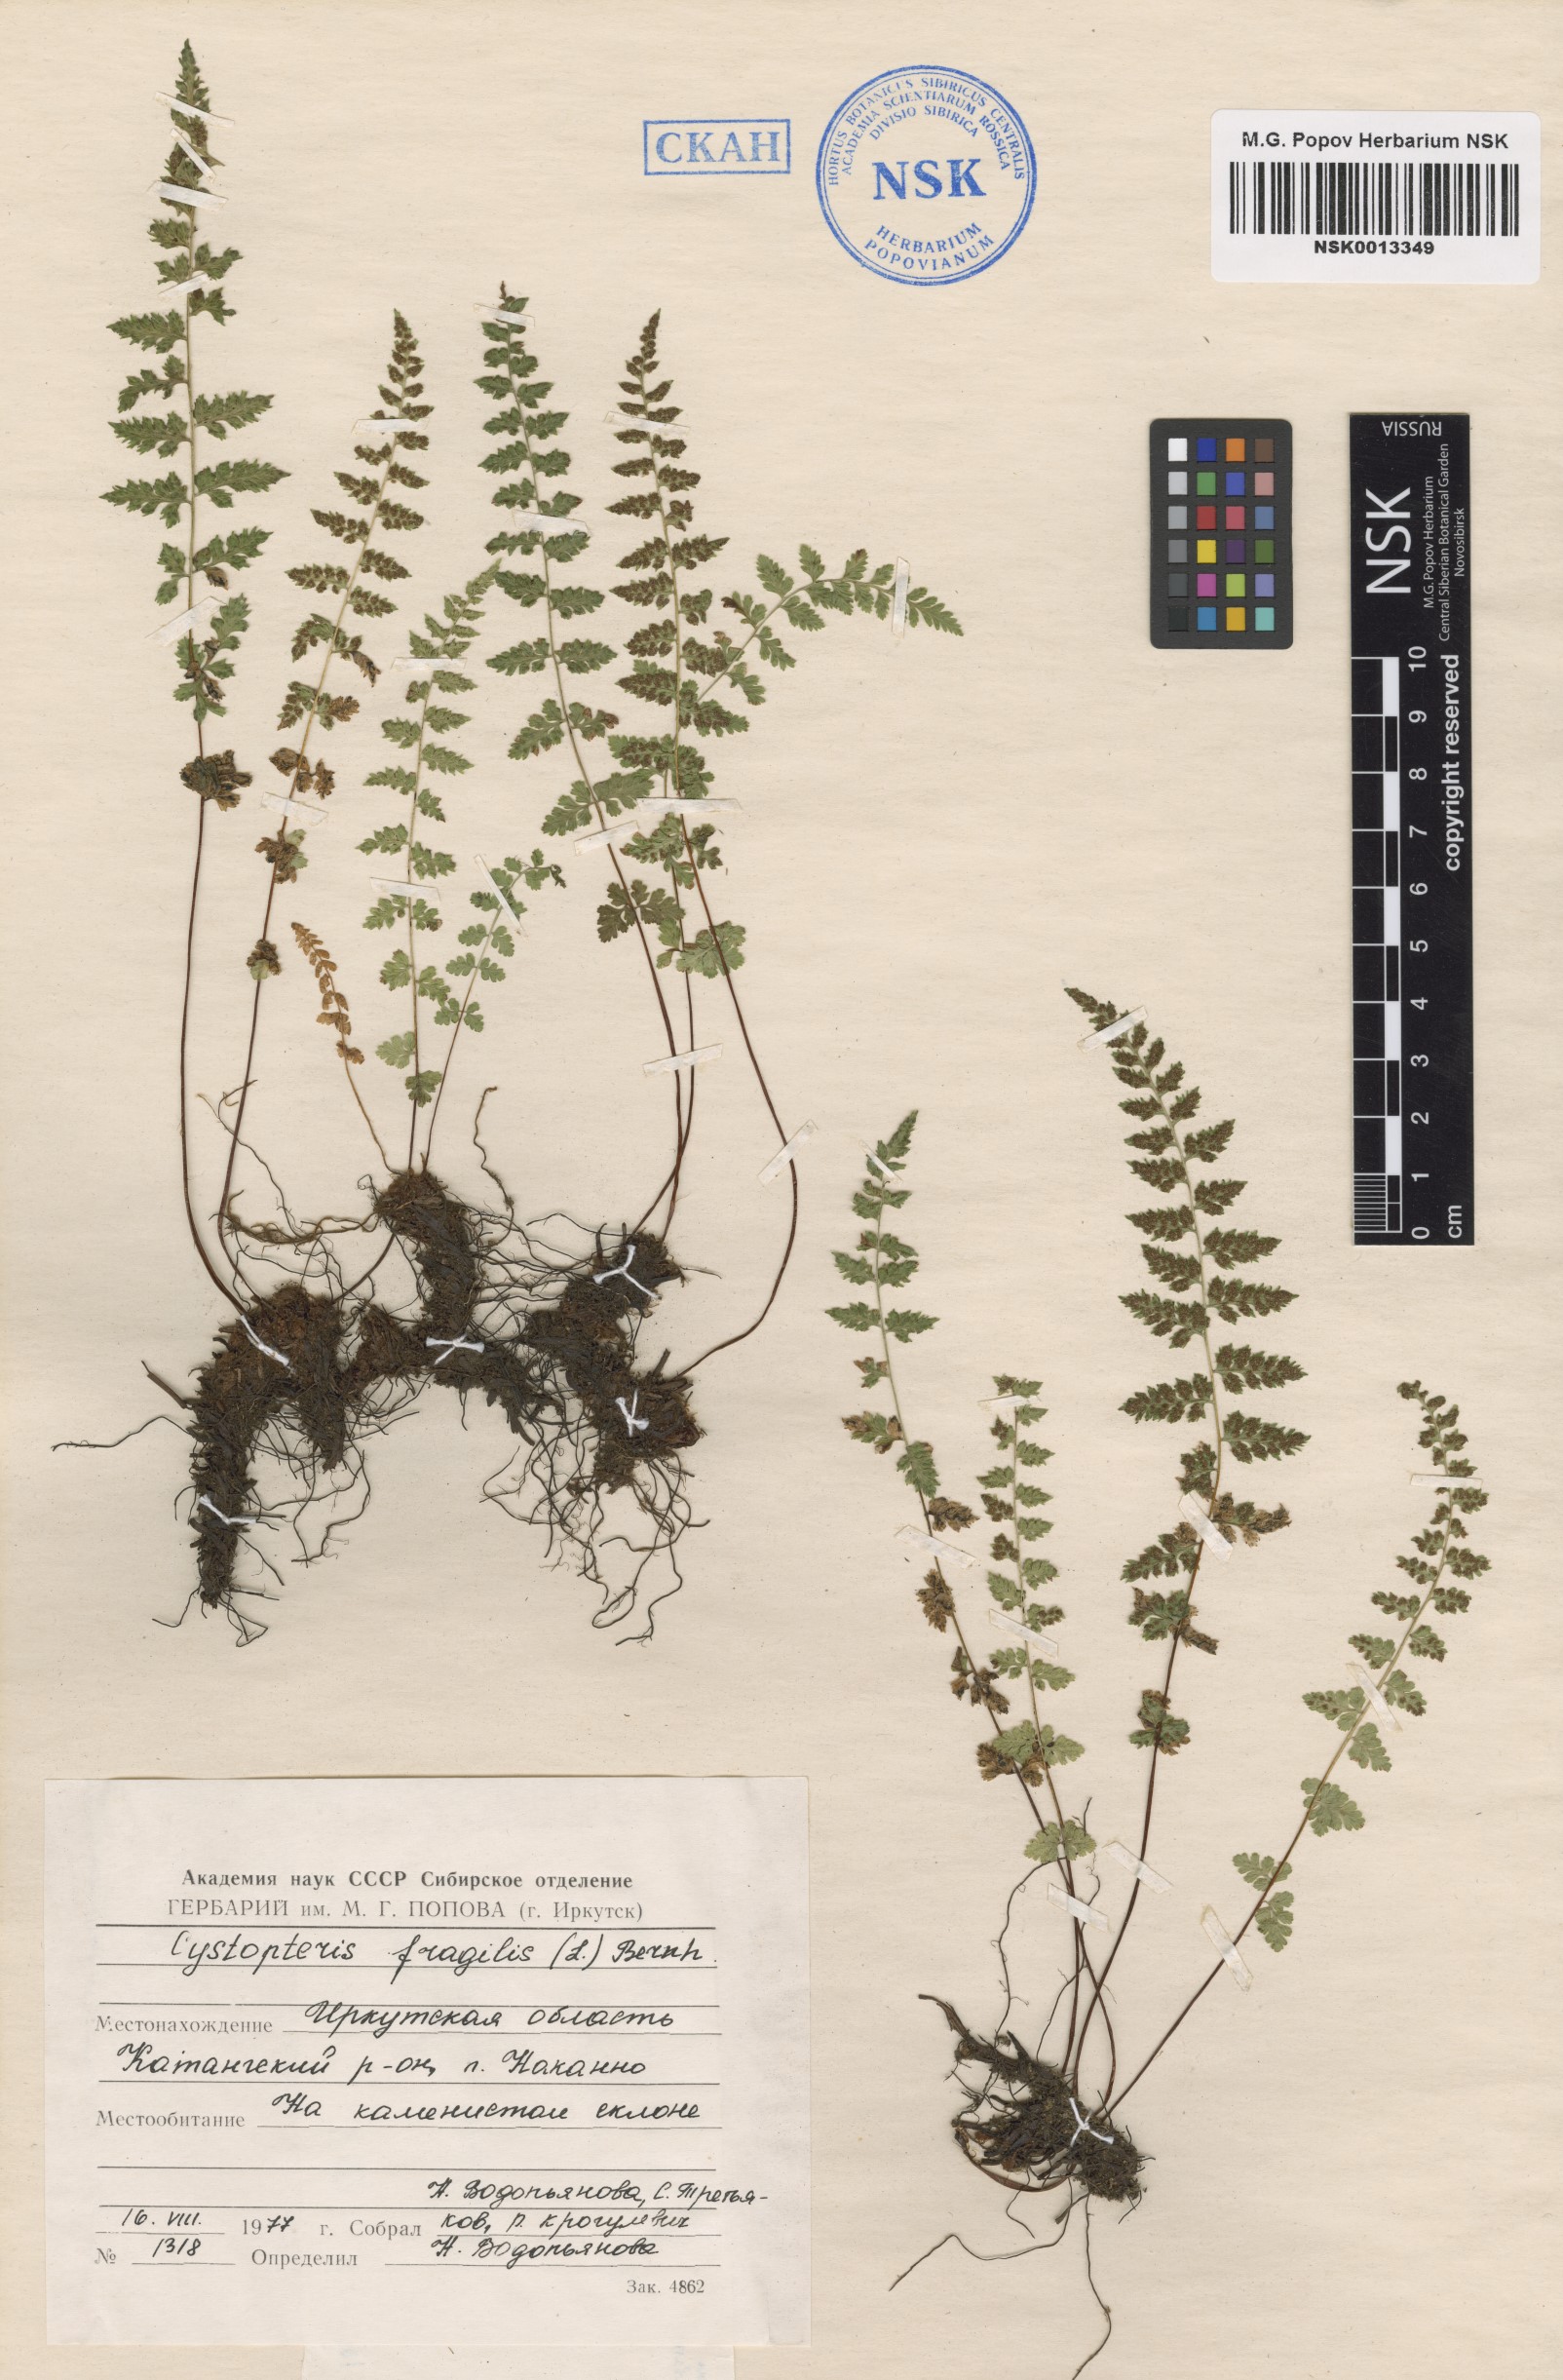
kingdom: Plantae
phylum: Tracheophyta
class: Polypodiopsida
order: Polypodiales
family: Cystopteridaceae
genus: Cystopteris
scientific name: Cystopteris fragilis
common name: Brittle bladder fern
